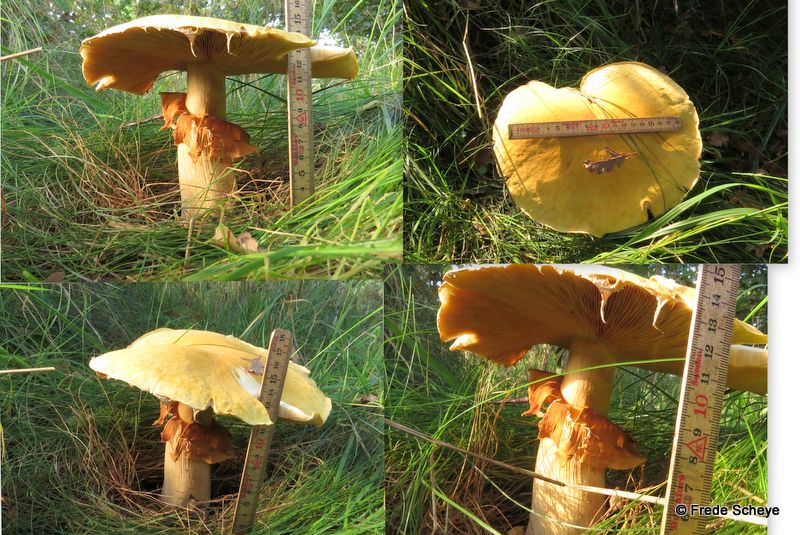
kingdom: Fungi
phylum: Basidiomycota
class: Agaricomycetes
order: Agaricales
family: Tricholomataceae
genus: Phaeolepiota
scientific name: Phaeolepiota aurea
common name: gyldenhat
